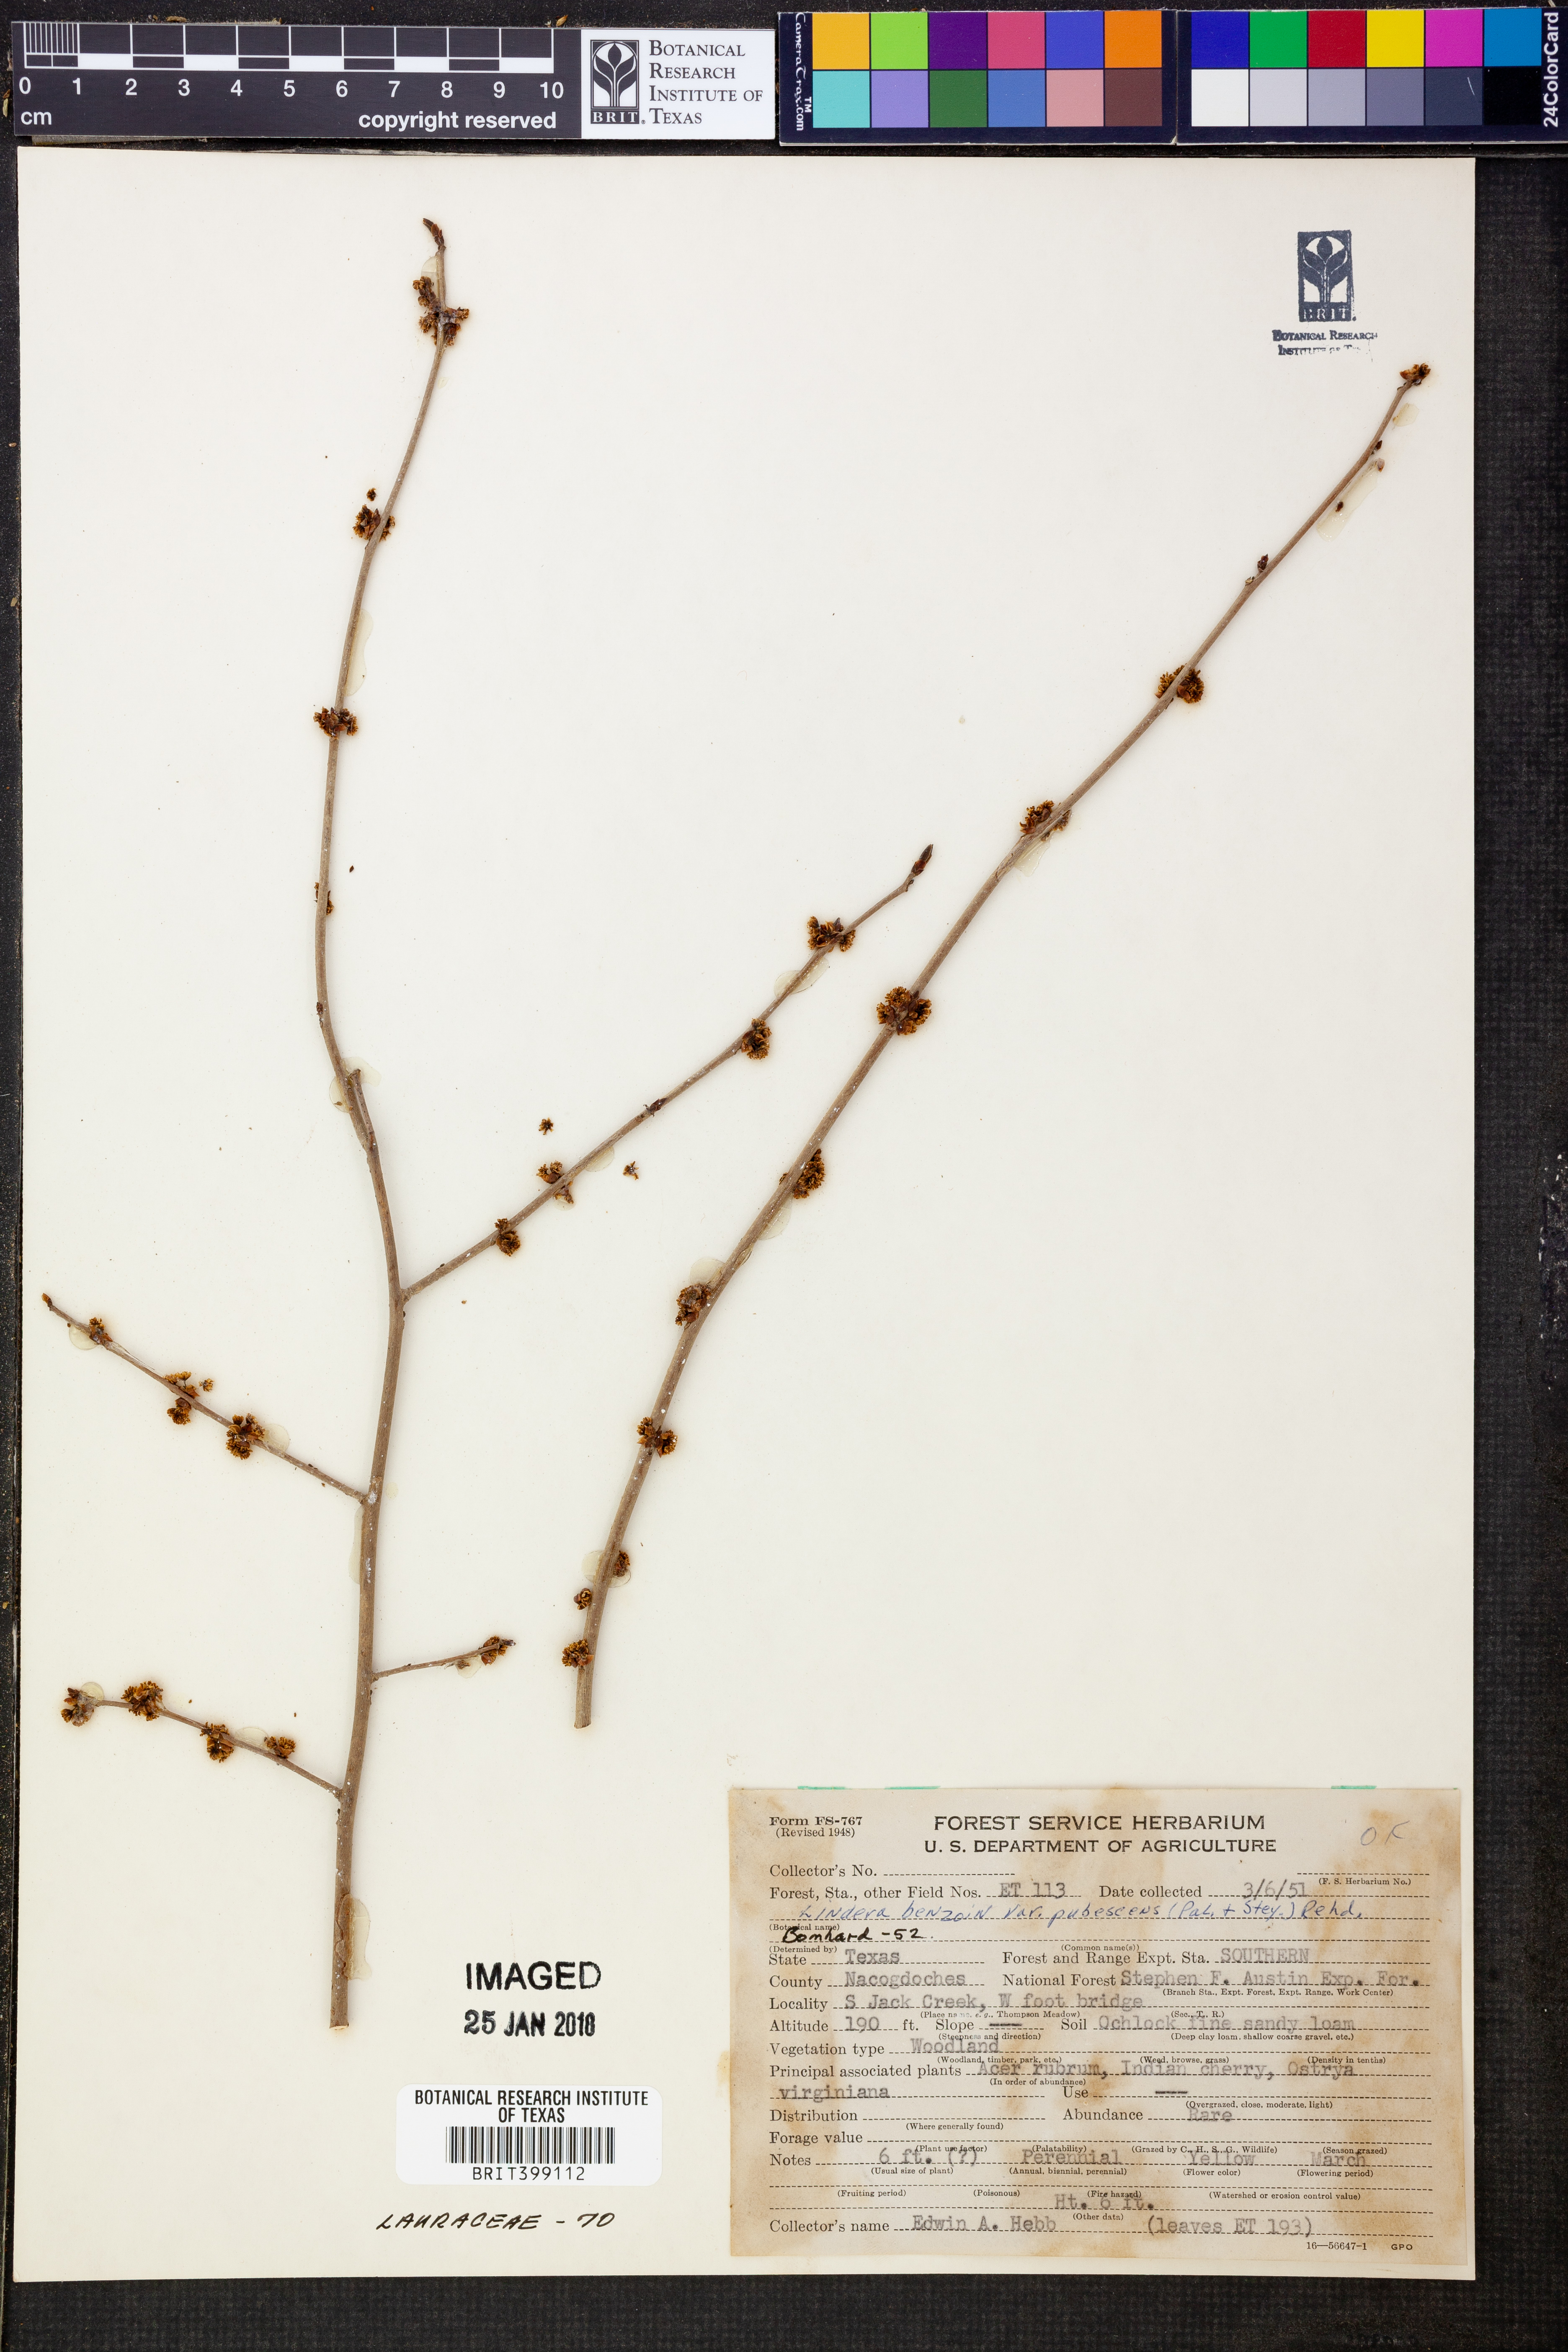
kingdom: Plantae
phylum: Tracheophyta
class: Magnoliopsida
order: Laurales
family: Lauraceae
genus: Lindera
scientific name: Lindera benzoin
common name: Spicebush
